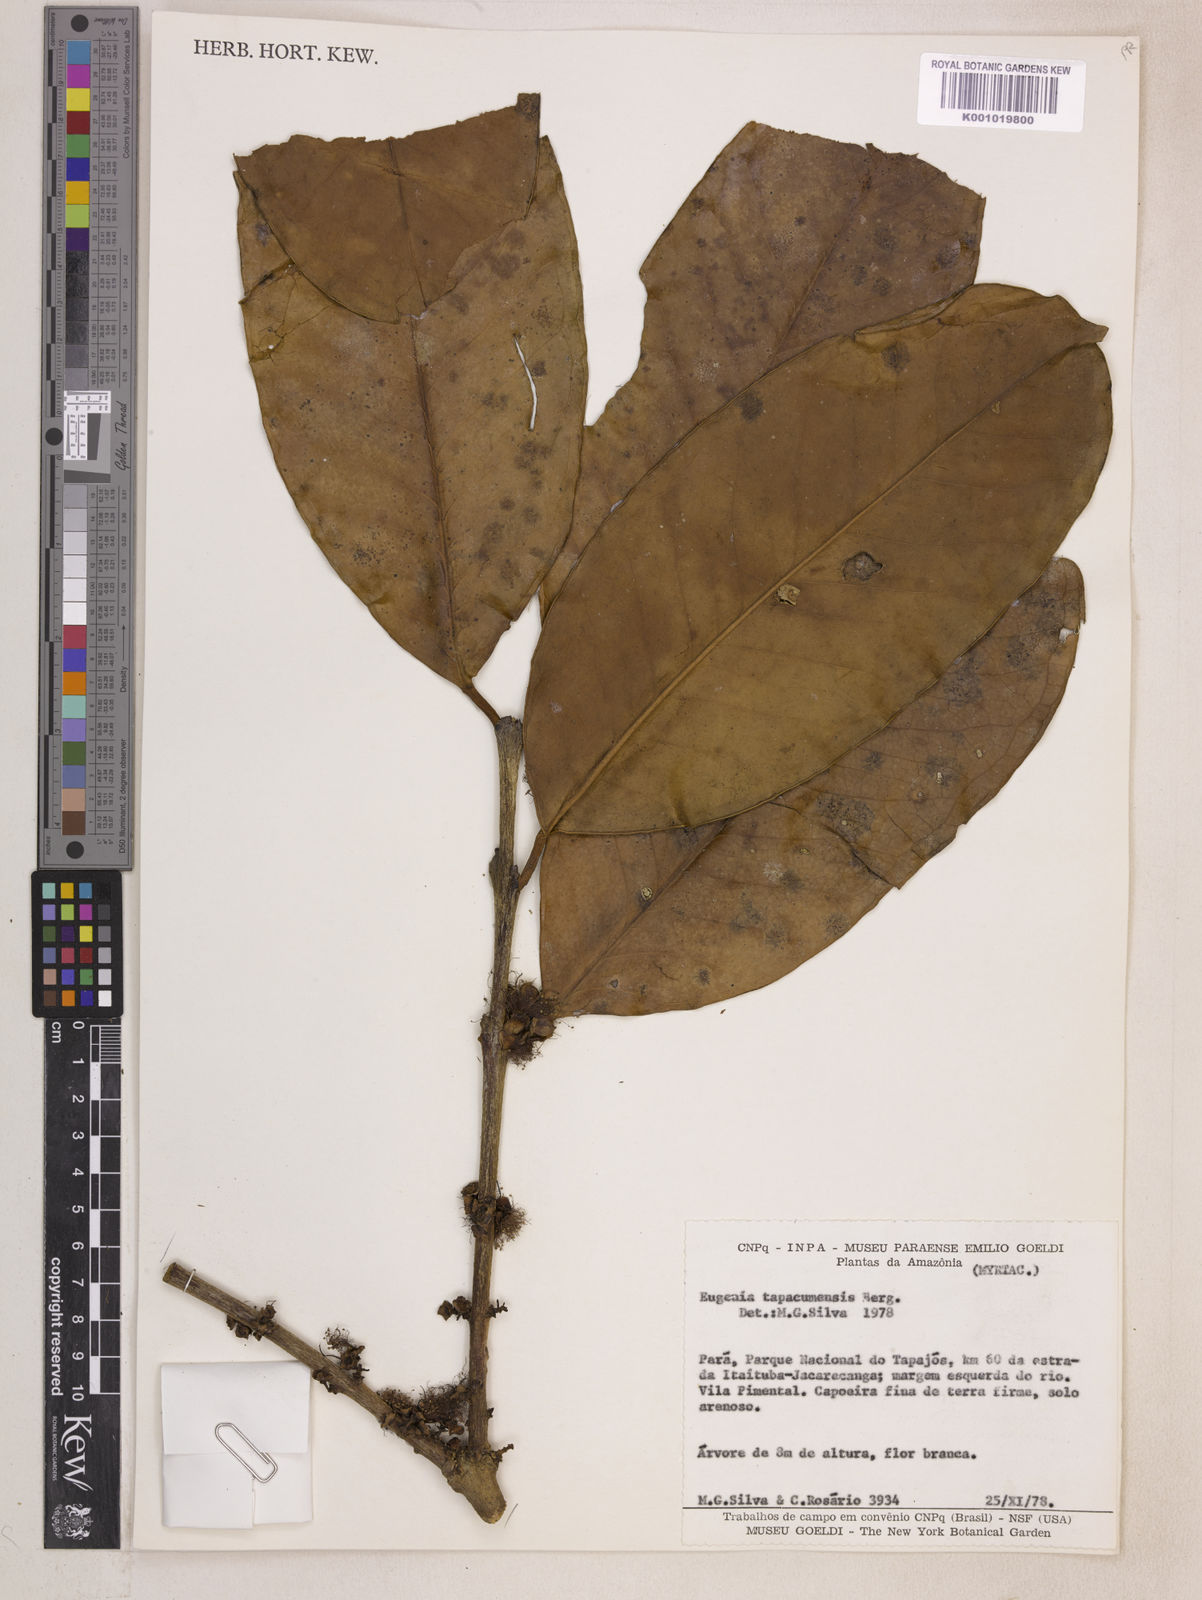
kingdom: Plantae
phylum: Tracheophyta
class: Magnoliopsida
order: Myrtales
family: Myrtaceae
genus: Eugenia
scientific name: Eugenia stictopetala
